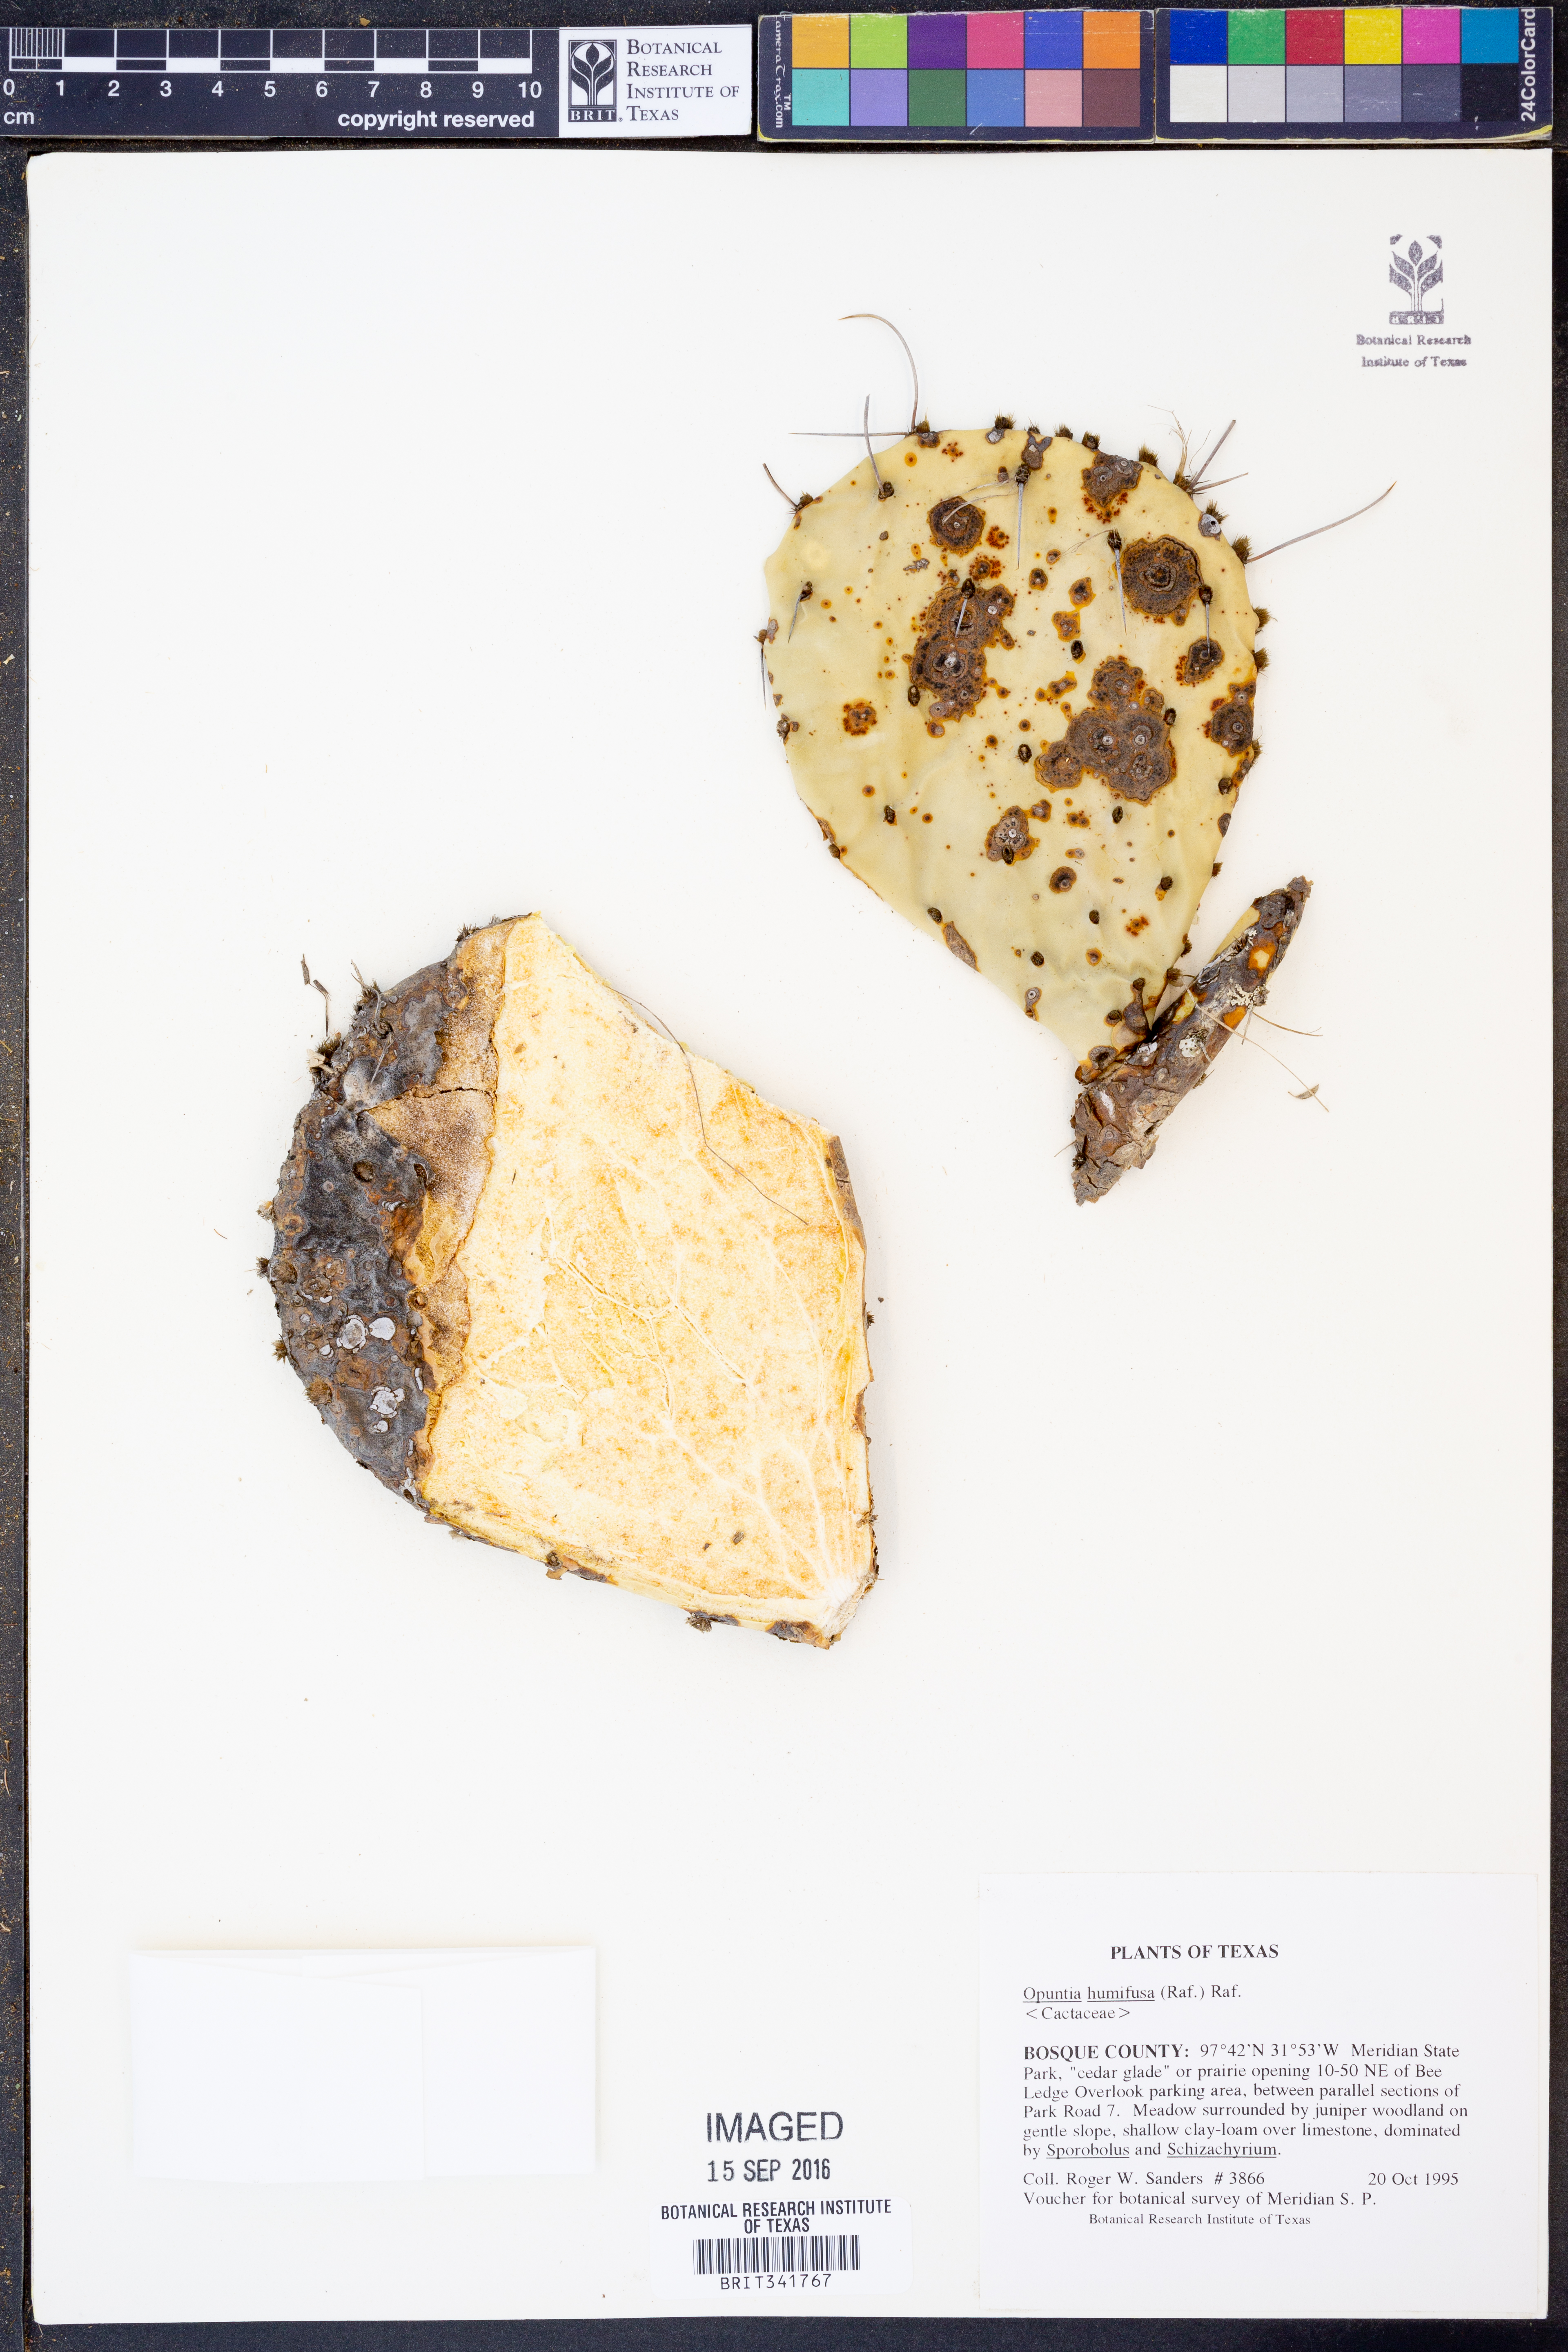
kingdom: Plantae
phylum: Tracheophyta
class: Magnoliopsida
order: Caryophyllales
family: Cactaceae
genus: Opuntia
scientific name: Opuntia humifusa
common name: Eastern prickly-pear
